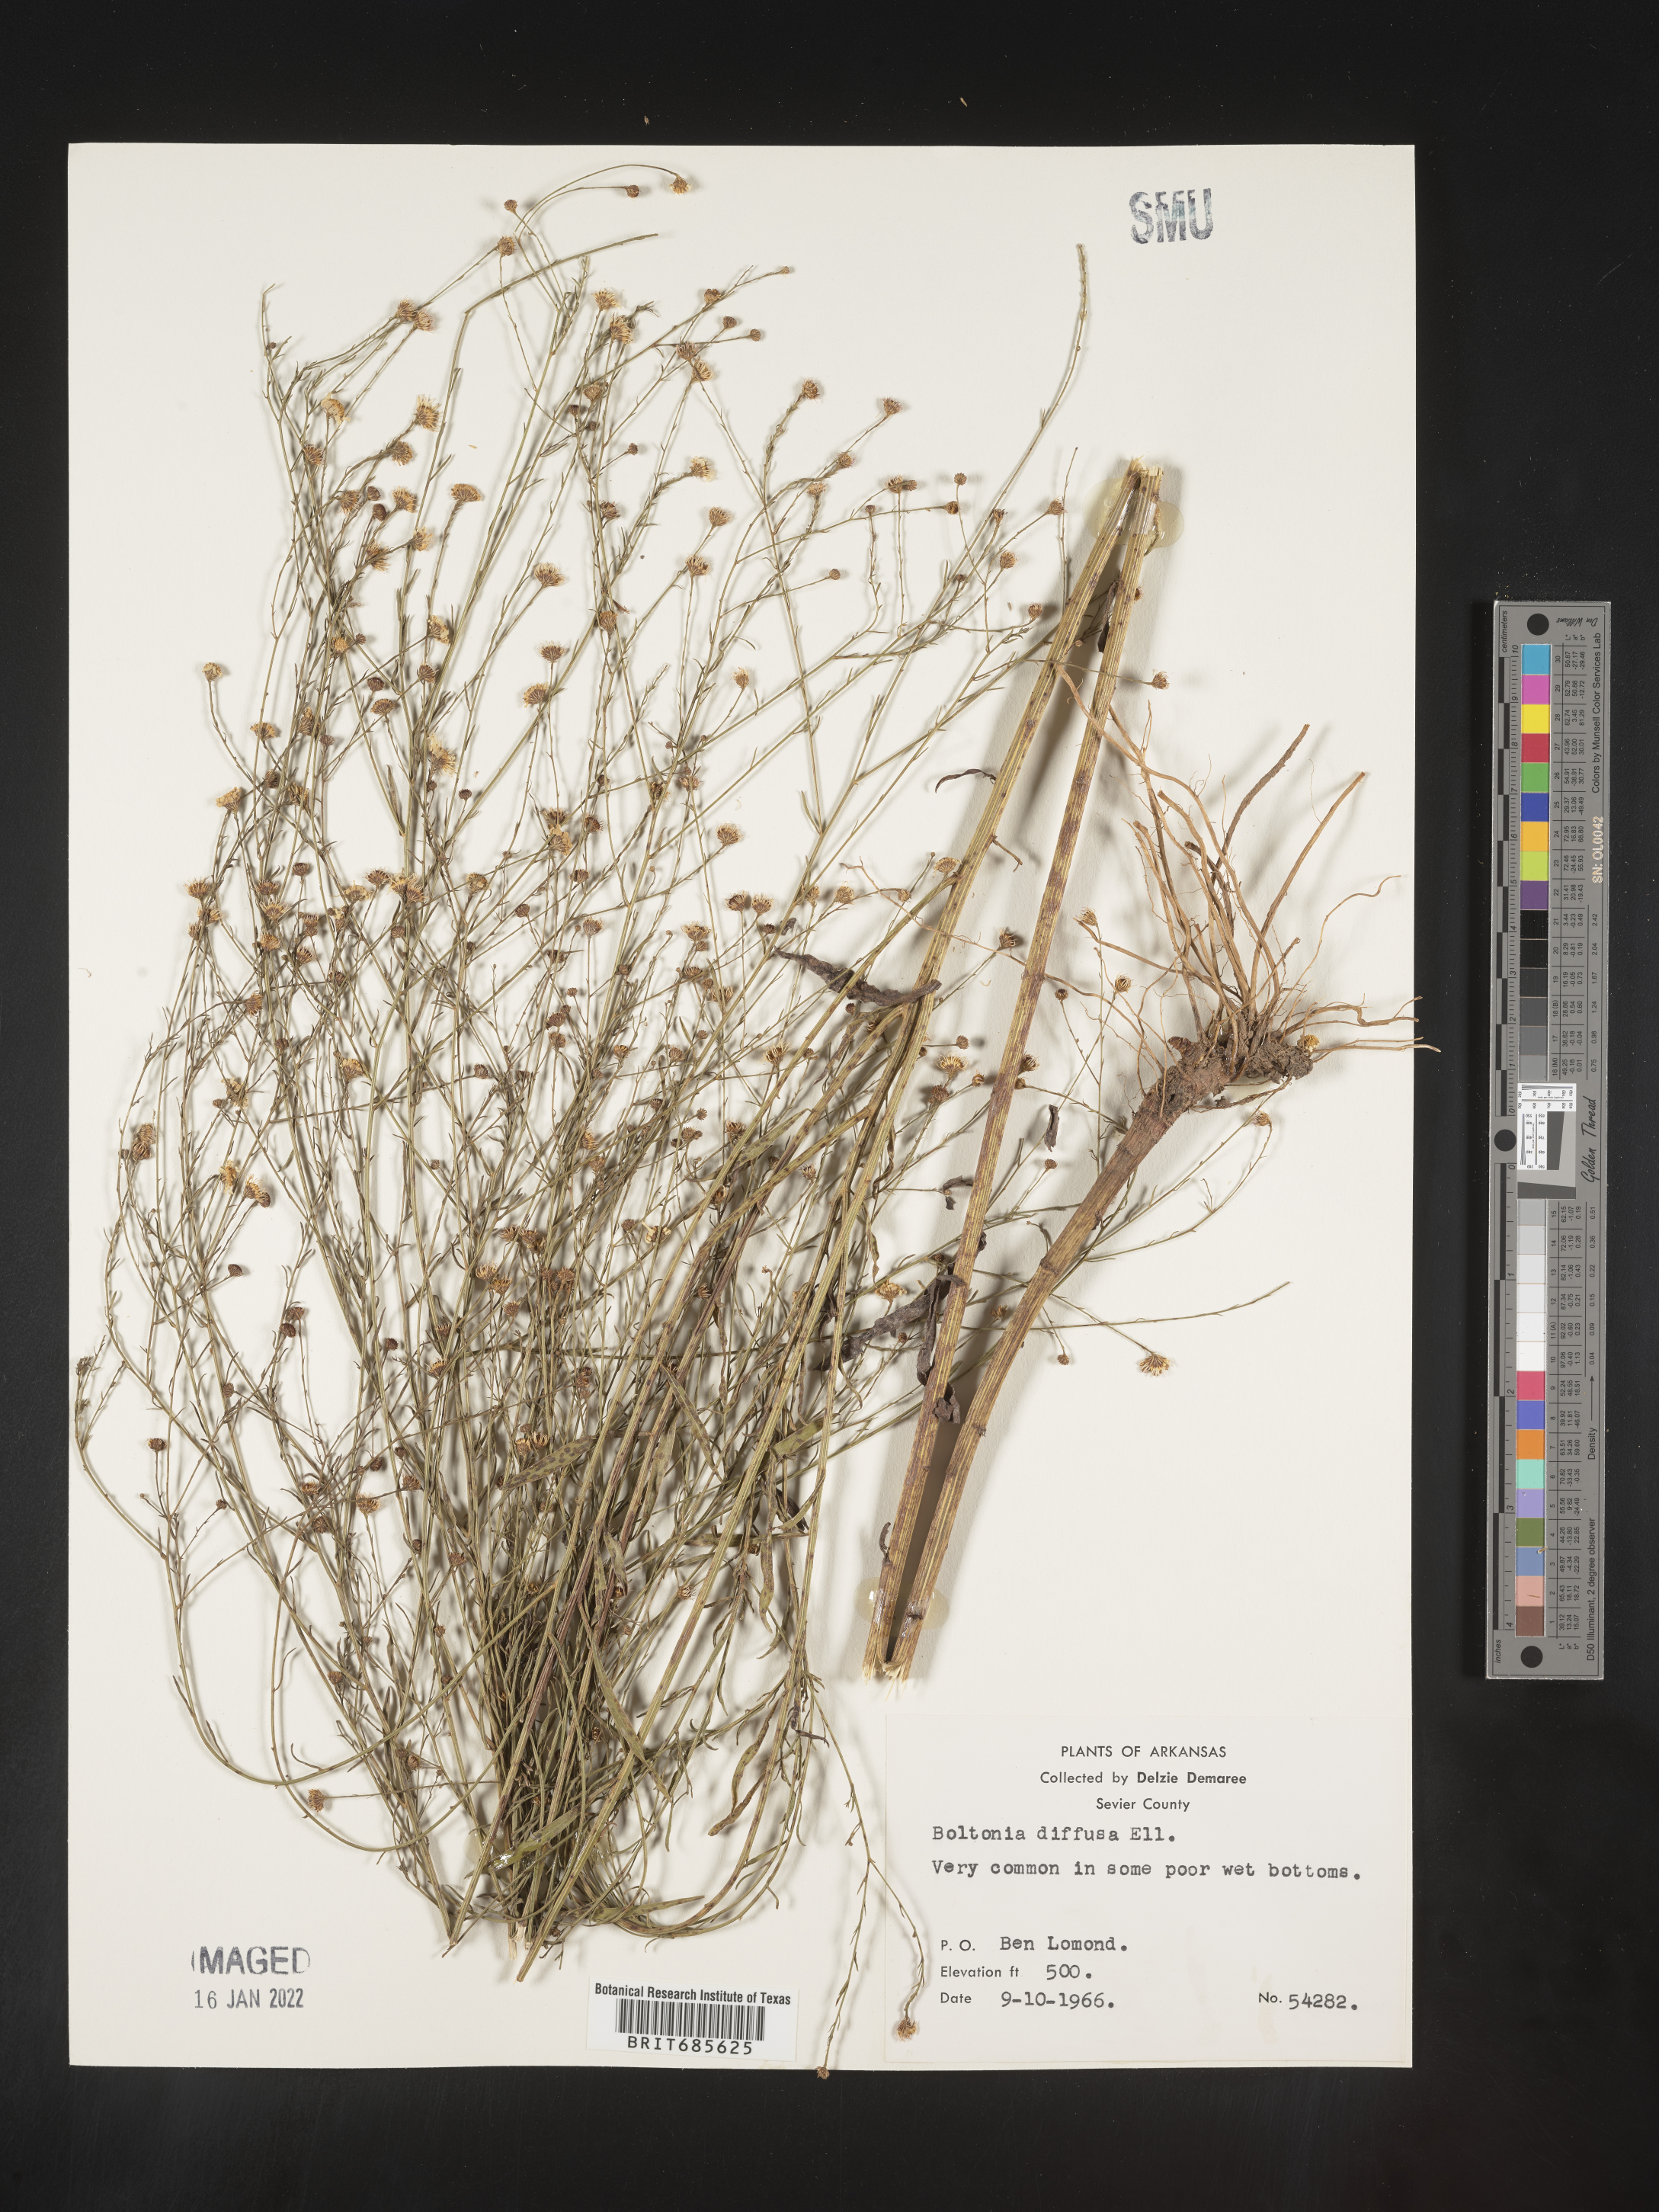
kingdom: Plantae
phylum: Tracheophyta
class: Magnoliopsida
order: Asterales
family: Asteraceae
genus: Boltonia
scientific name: Boltonia diffusa
